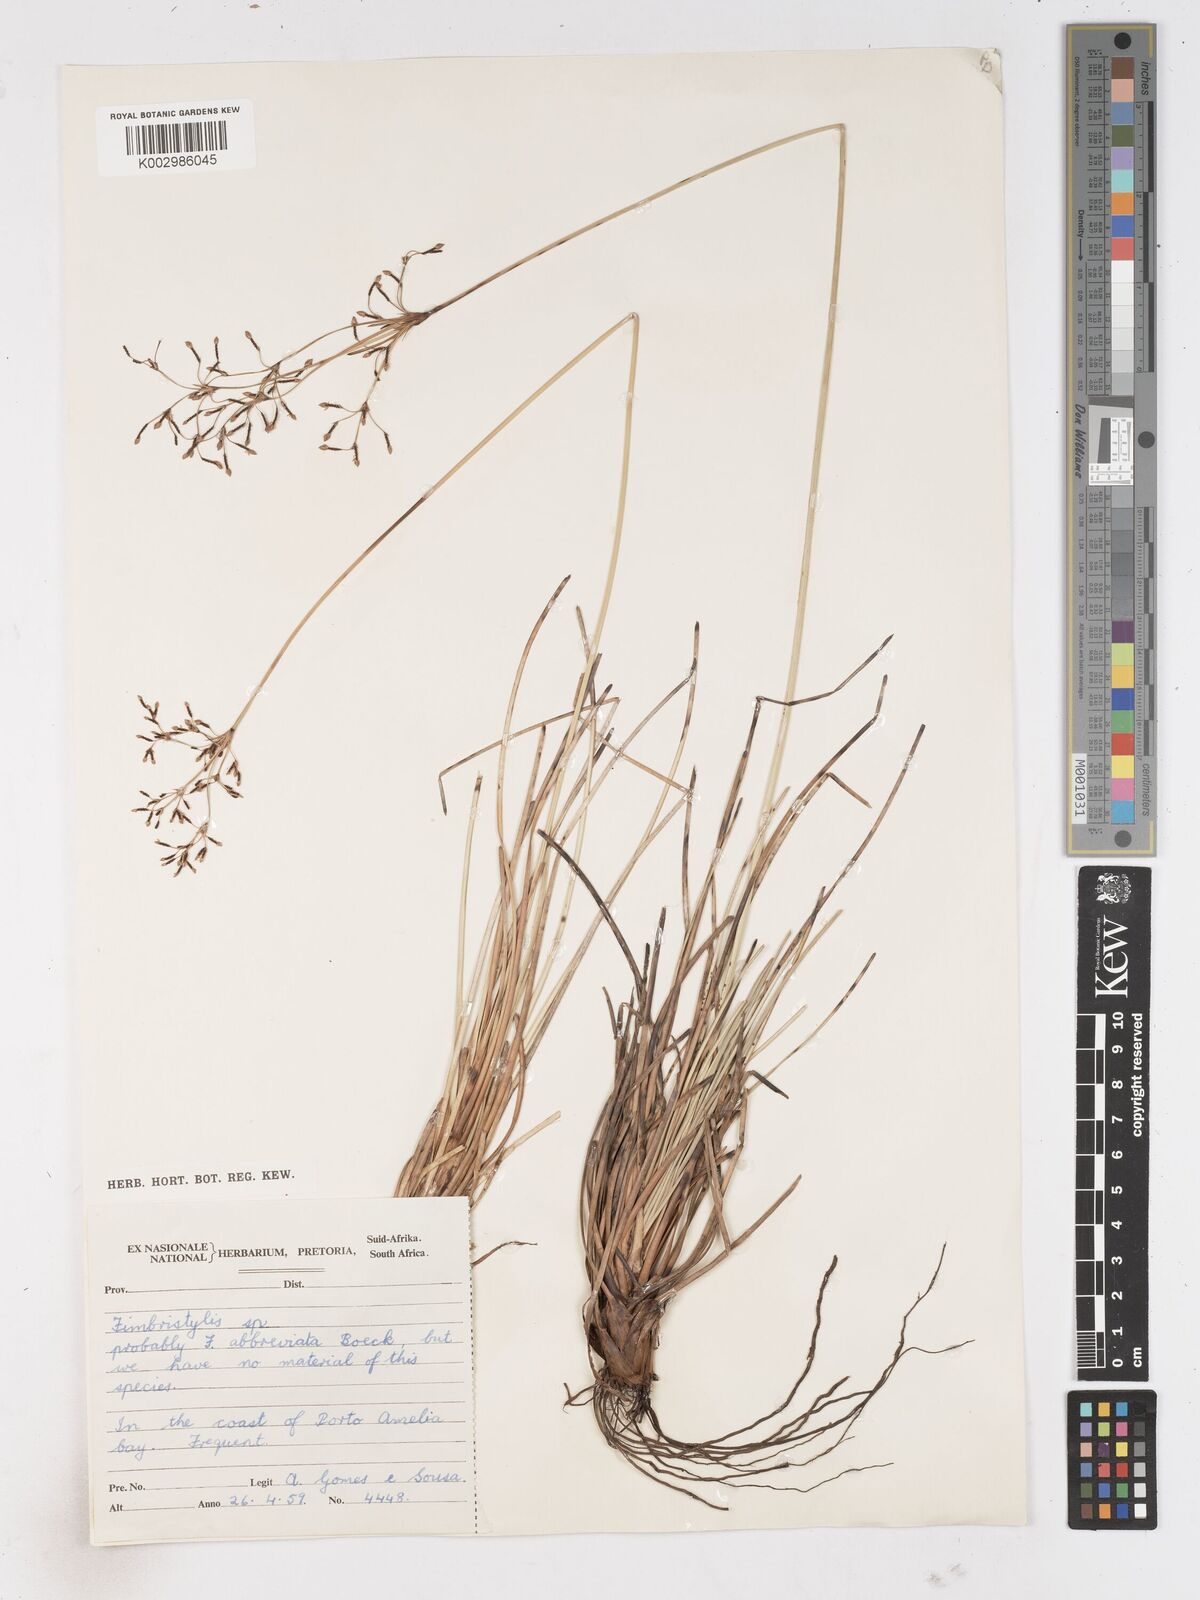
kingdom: Plantae
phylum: Tracheophyta
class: Liliopsida
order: Poales
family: Cyperaceae
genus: Fimbristylis
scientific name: Fimbristylis
